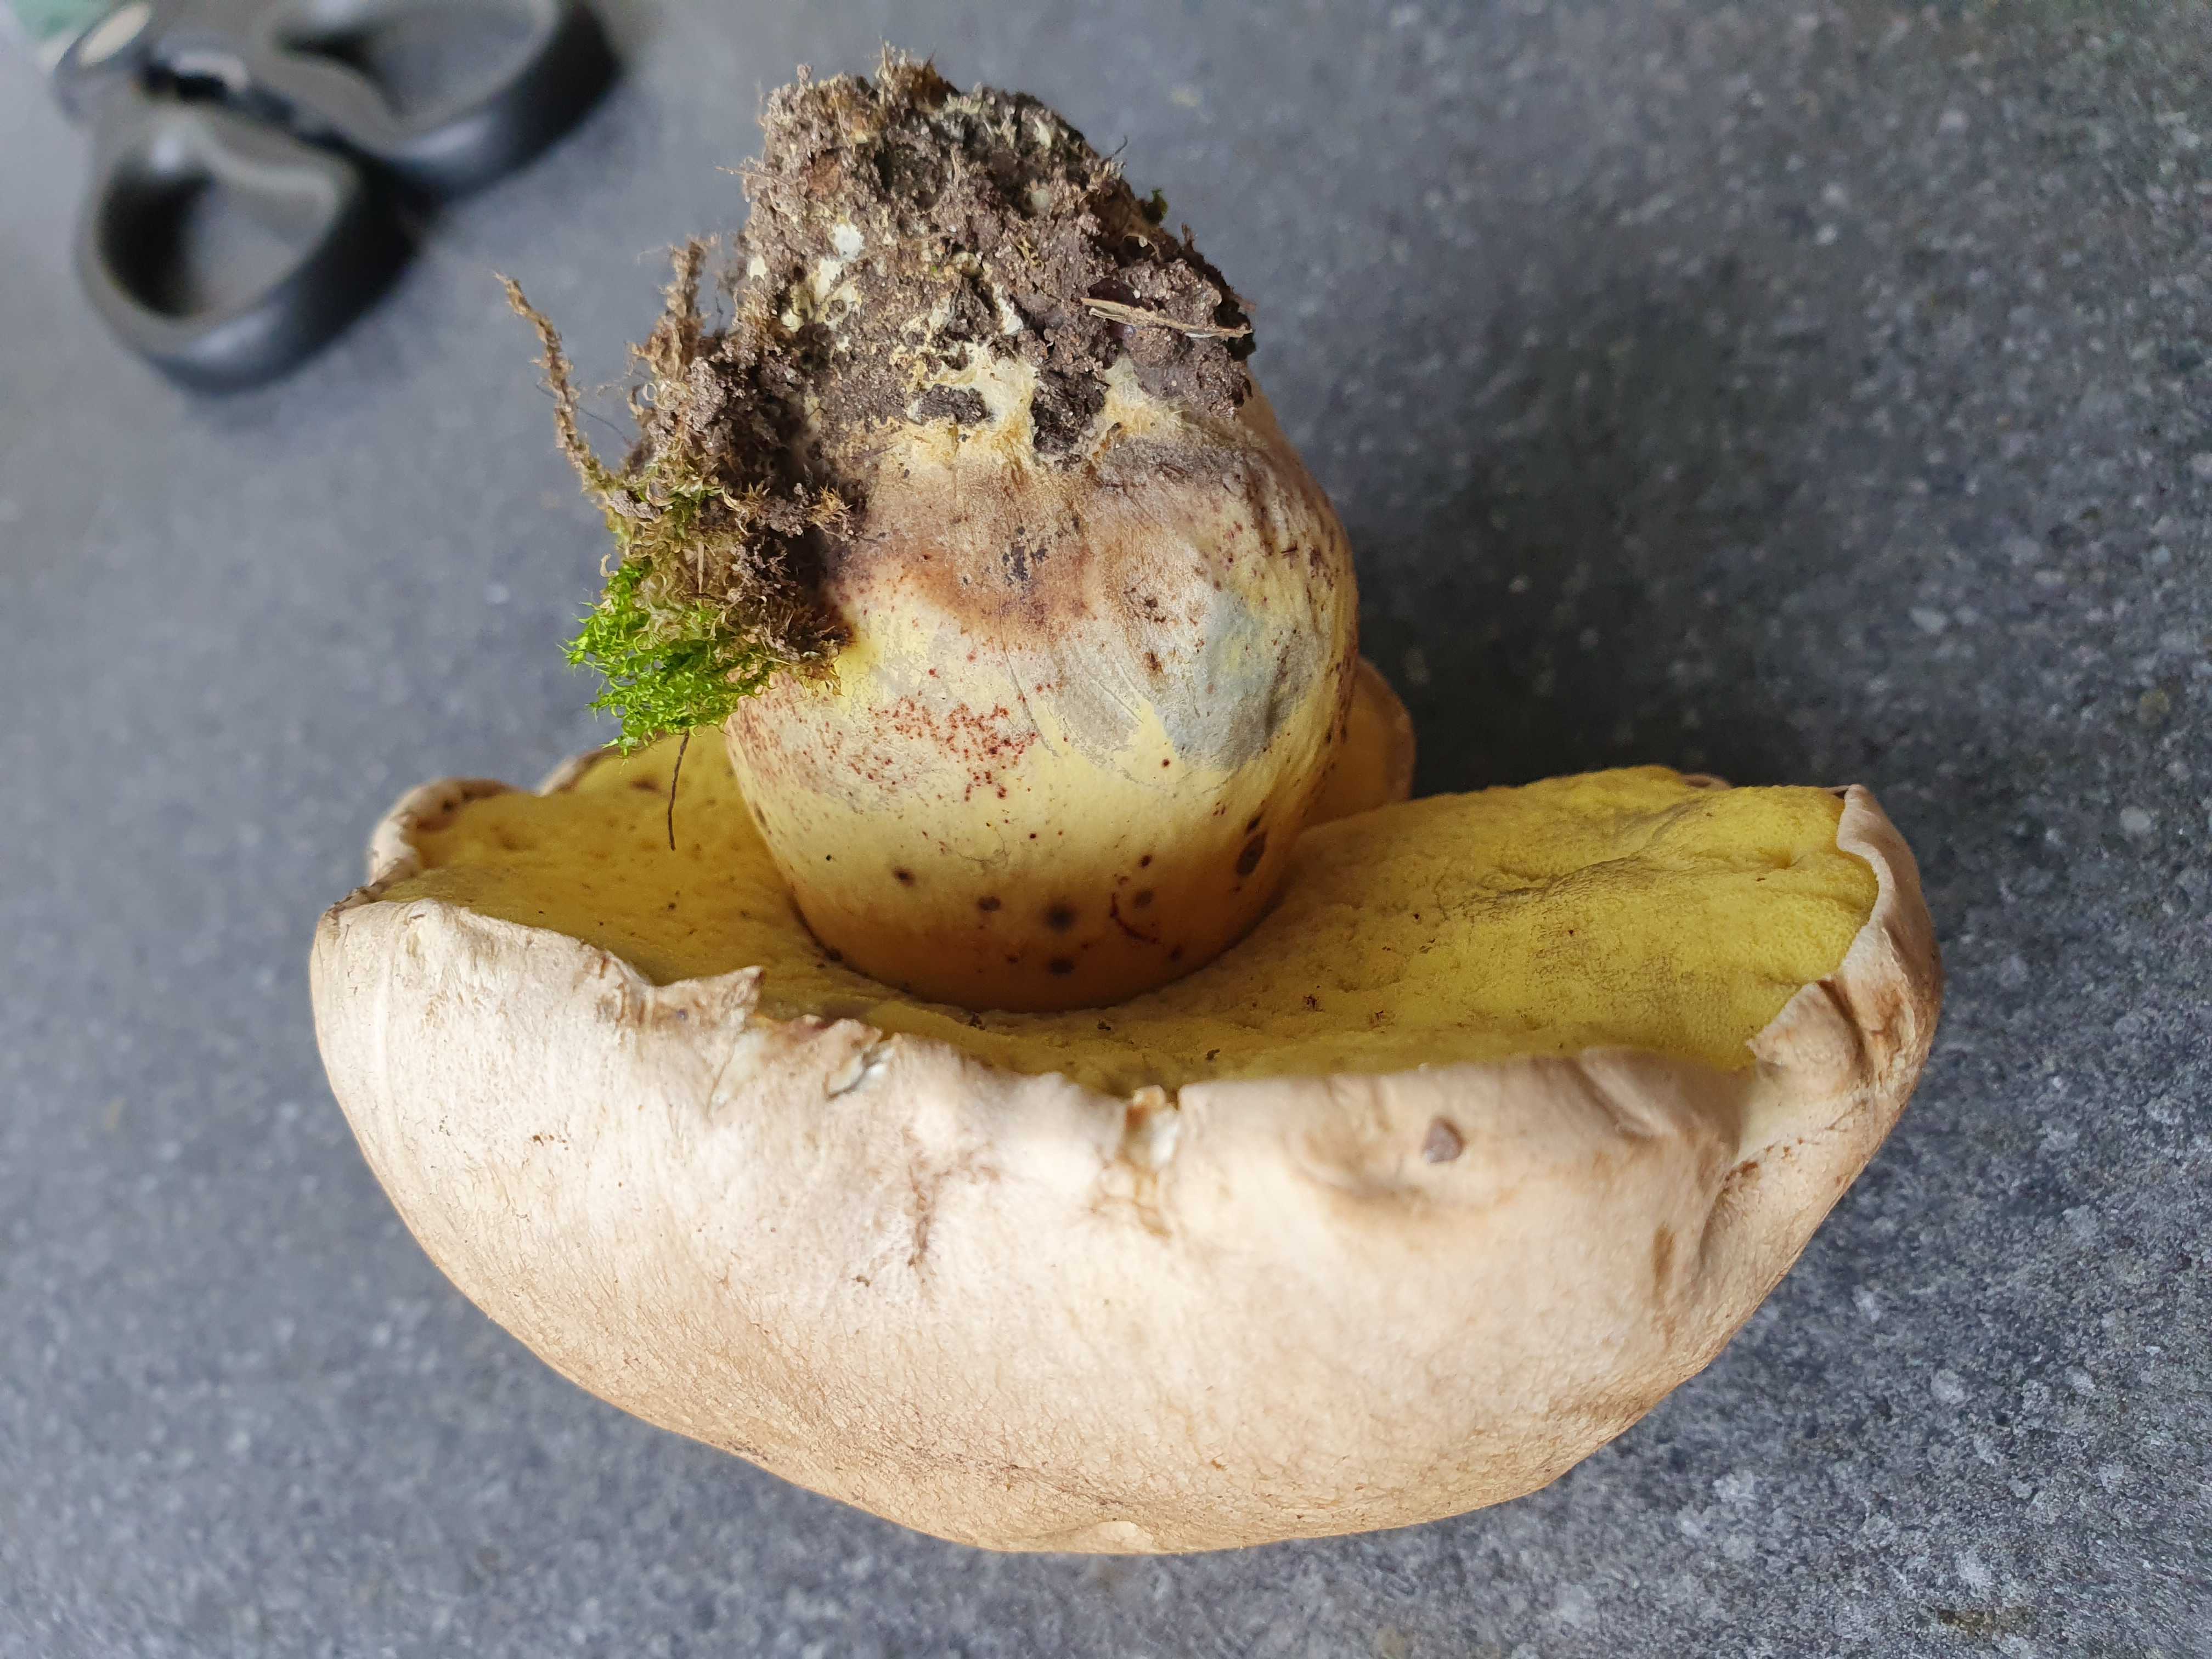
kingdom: Fungi
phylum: Basidiomycota
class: Agaricomycetes
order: Boletales
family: Boletaceae
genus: Caloboletus
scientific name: Caloboletus radicans
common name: rod-rørhat
